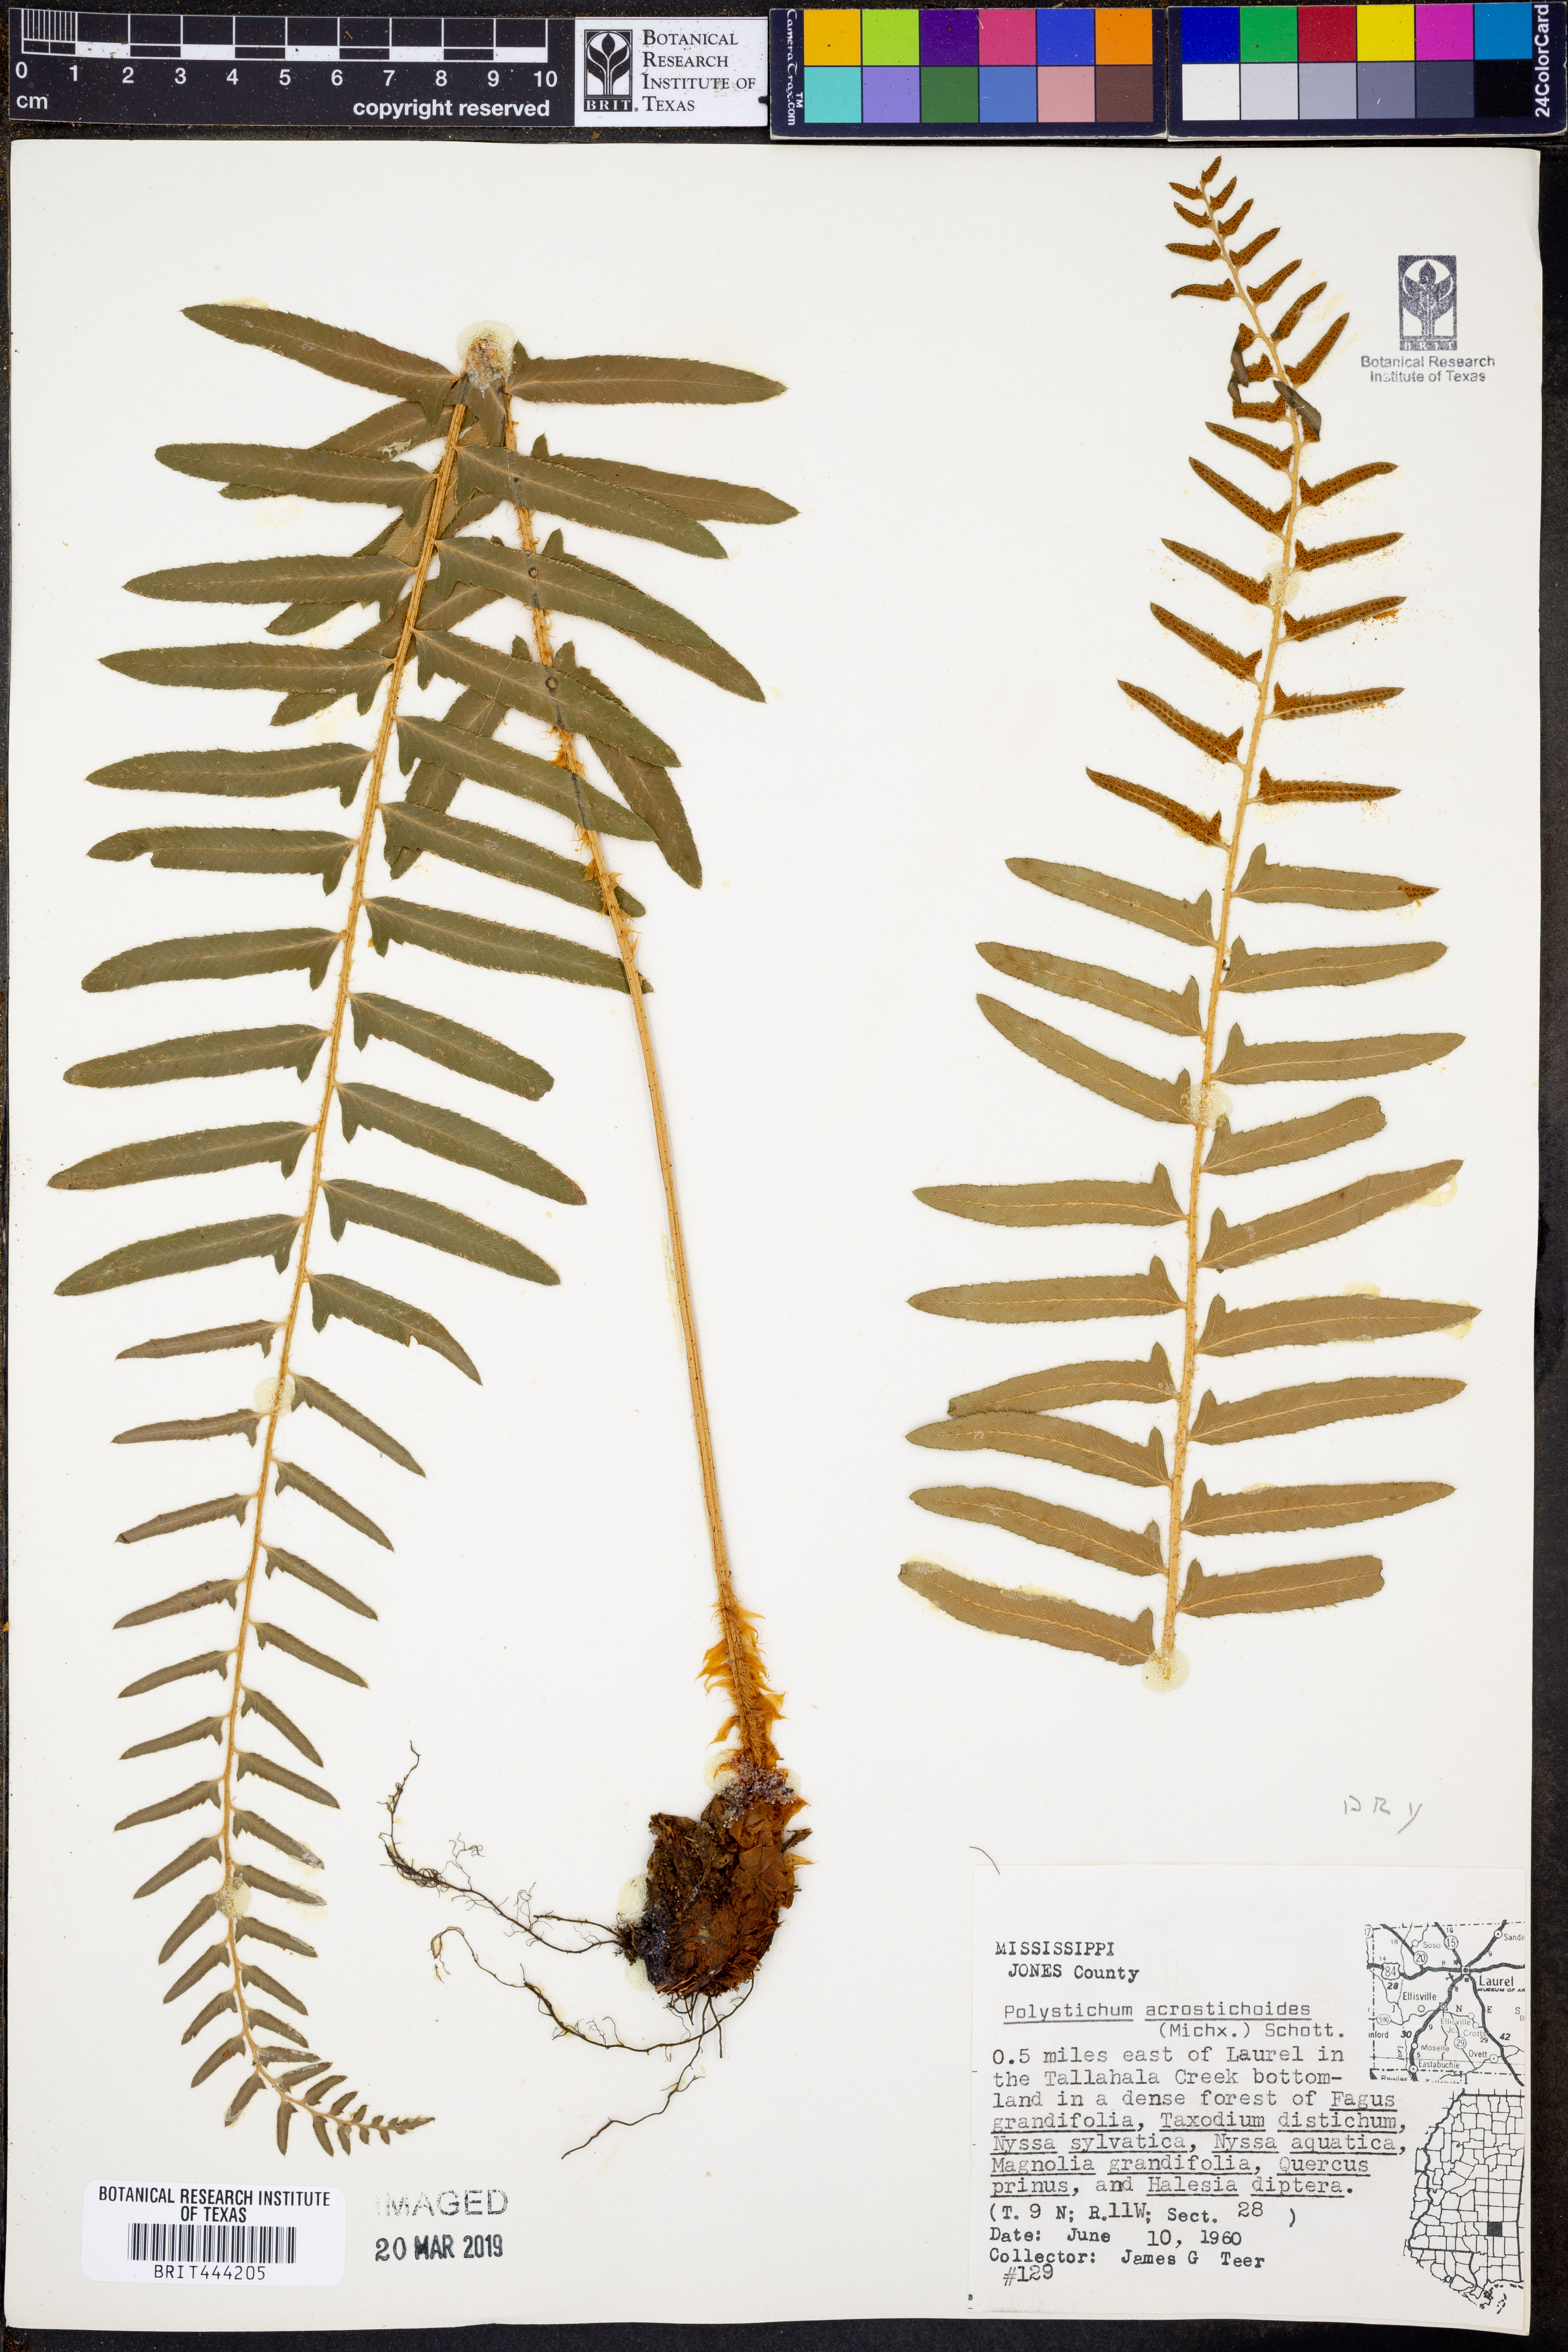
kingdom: Plantae
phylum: Tracheophyta
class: Polypodiopsida
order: Polypodiales
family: Dryopteridaceae
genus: Polystichum
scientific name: Polystichum acrostichoides
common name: Christmas fern
